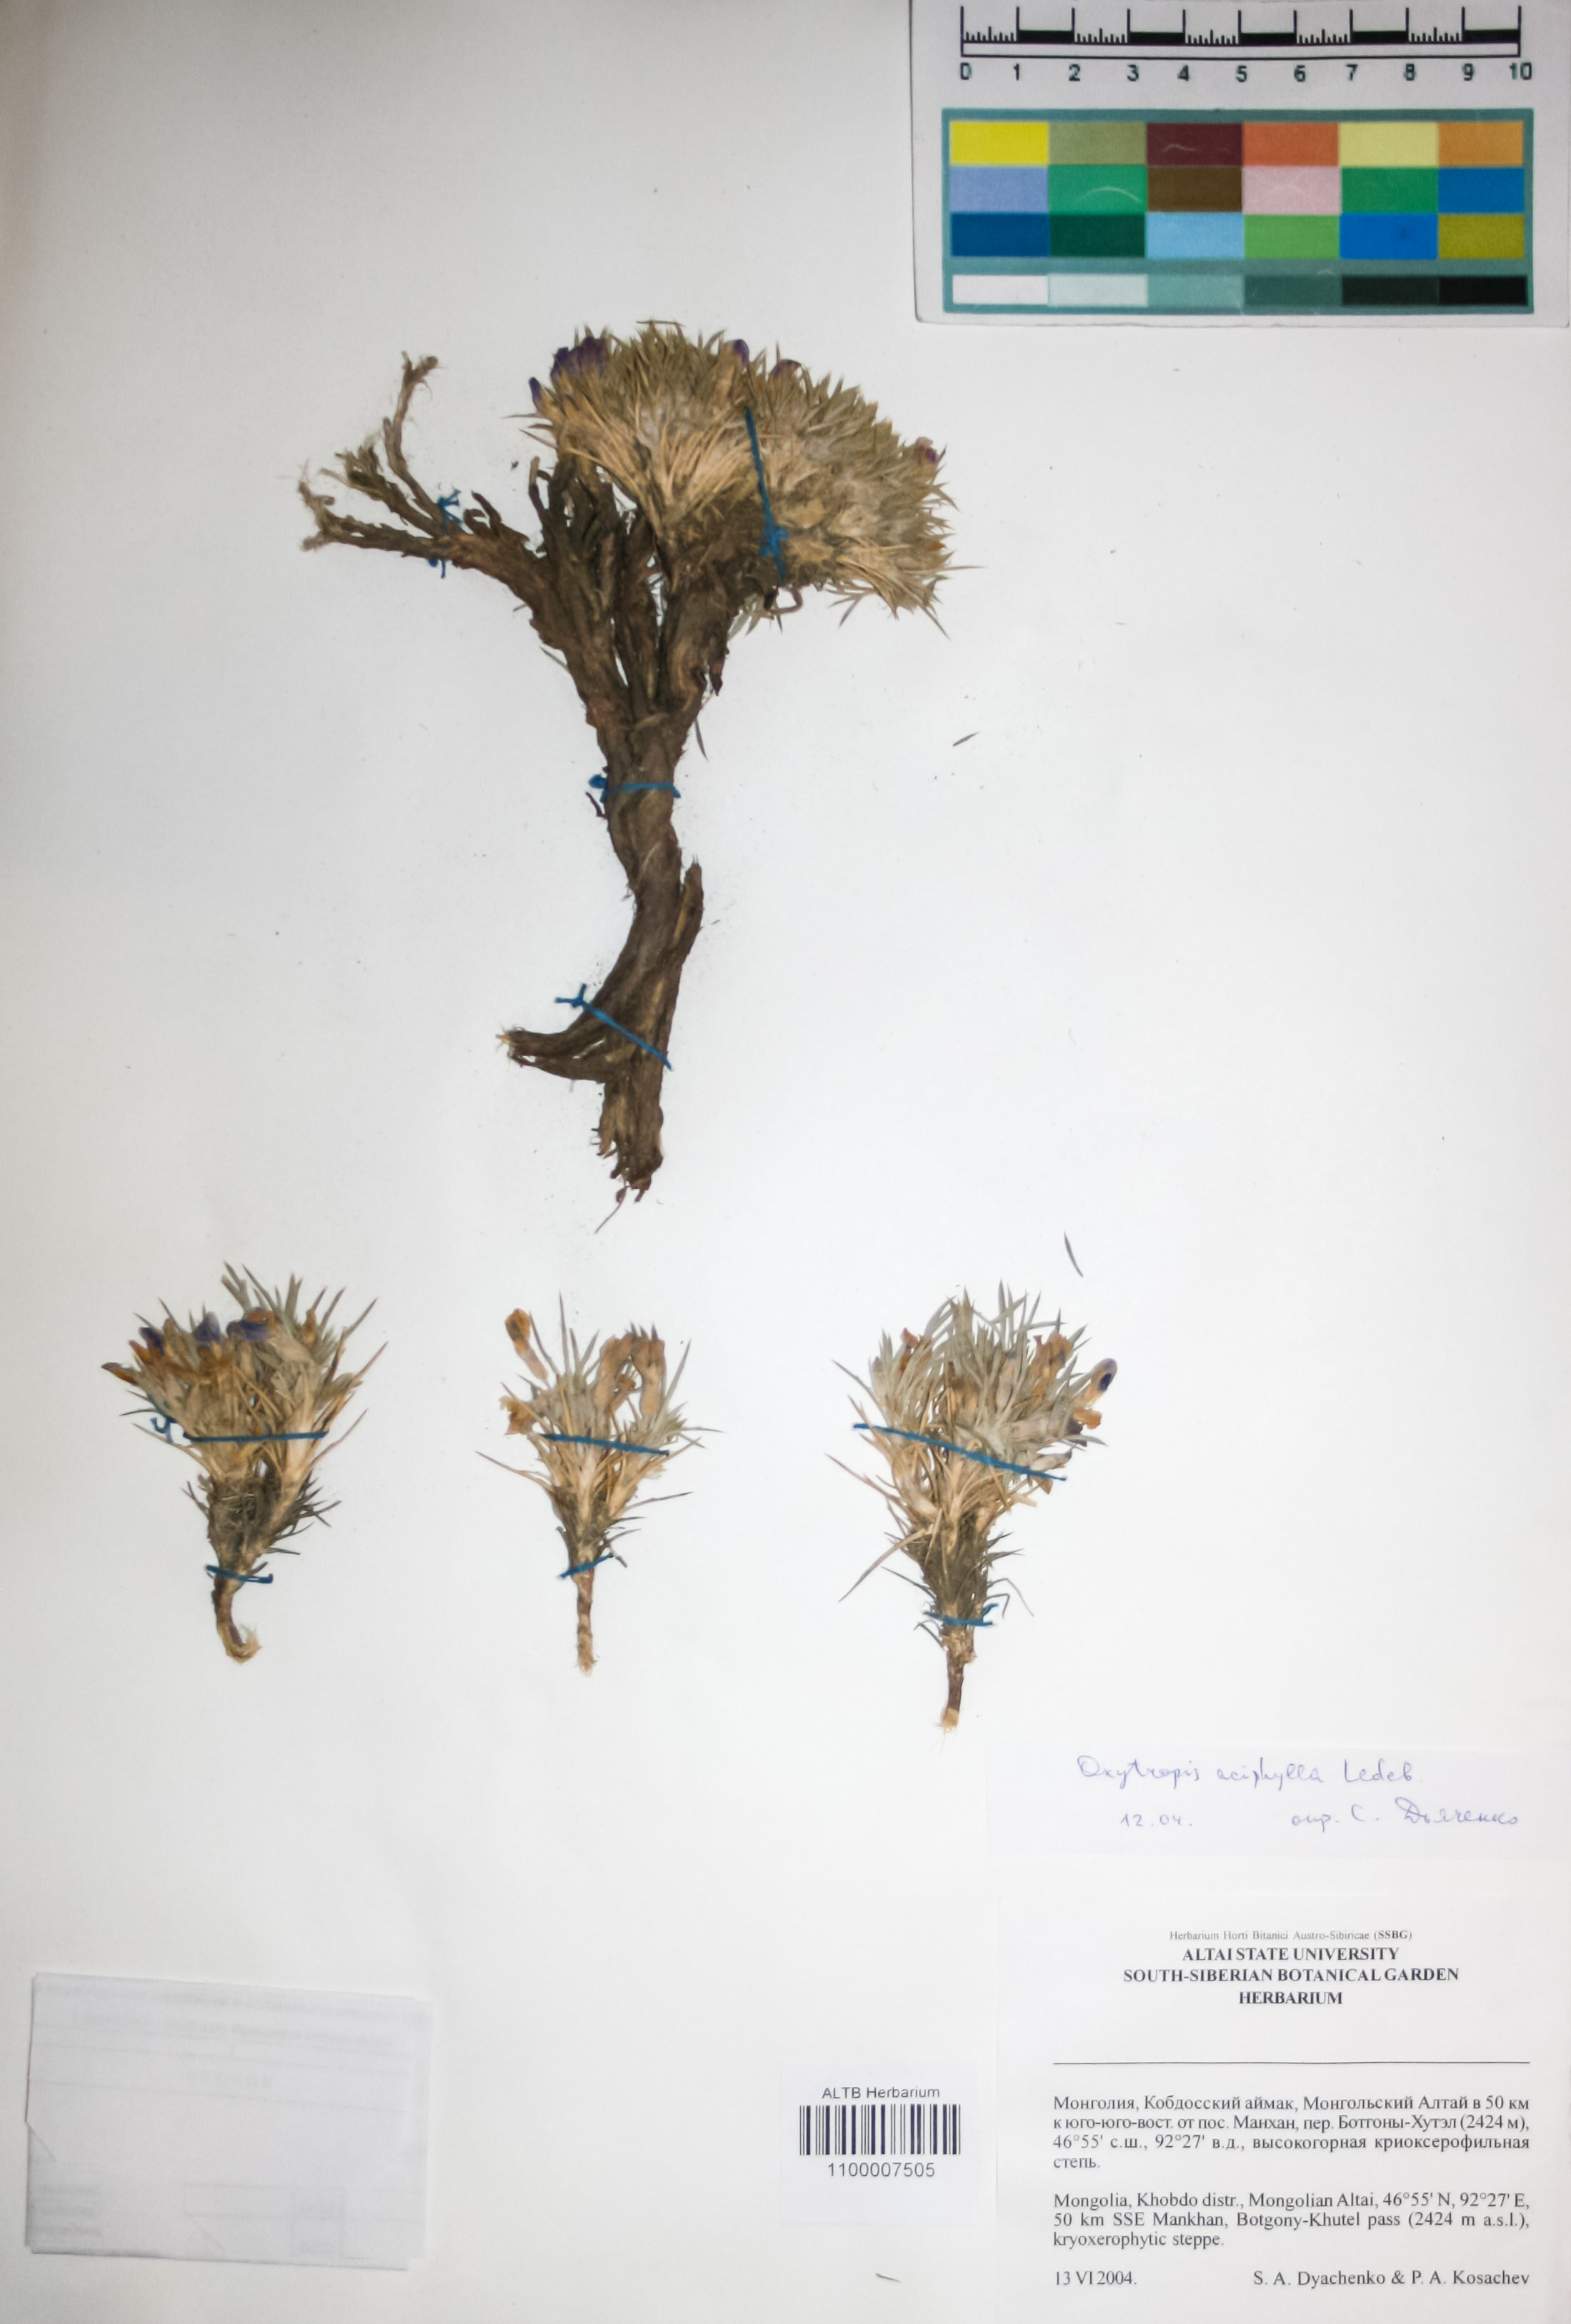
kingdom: Plantae
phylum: Tracheophyta
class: Magnoliopsida
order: Fabales
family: Fabaceae
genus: Oxytropis
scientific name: Oxytropis aciphylla
